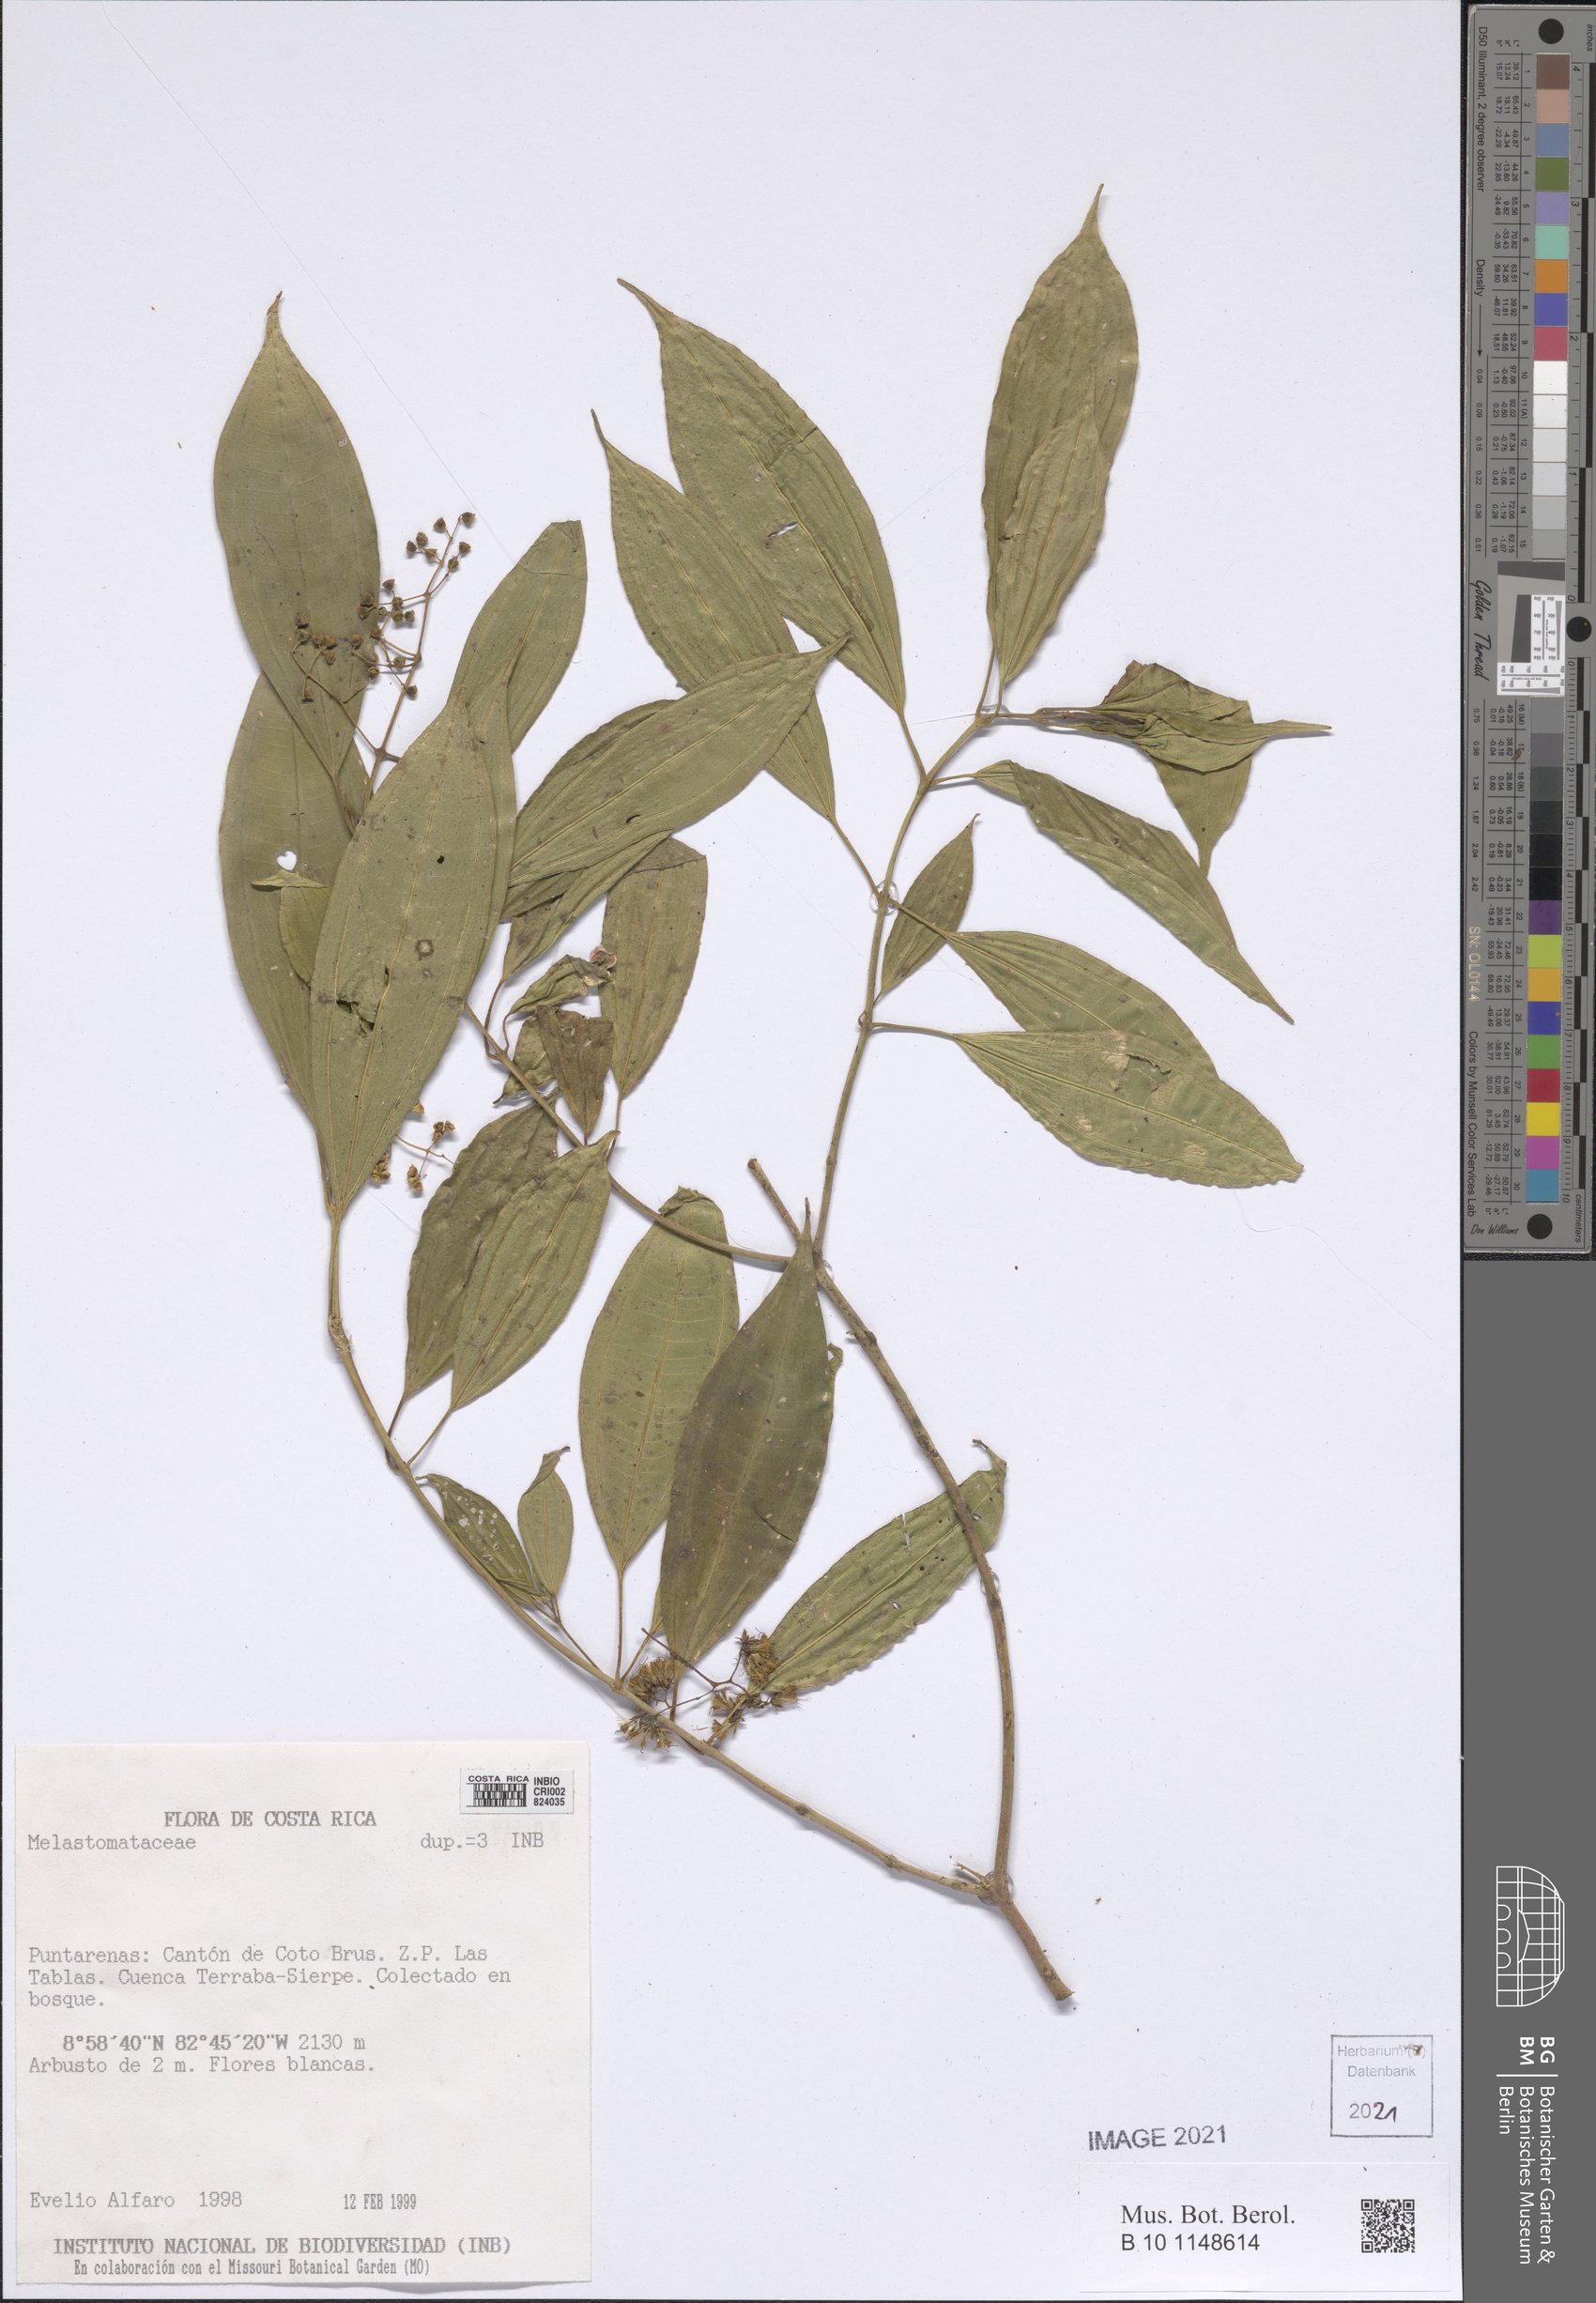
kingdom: Plantae
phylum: Tracheophyta
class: Magnoliopsida
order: Myrtales
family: Melastomataceae
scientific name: Melastomataceae
